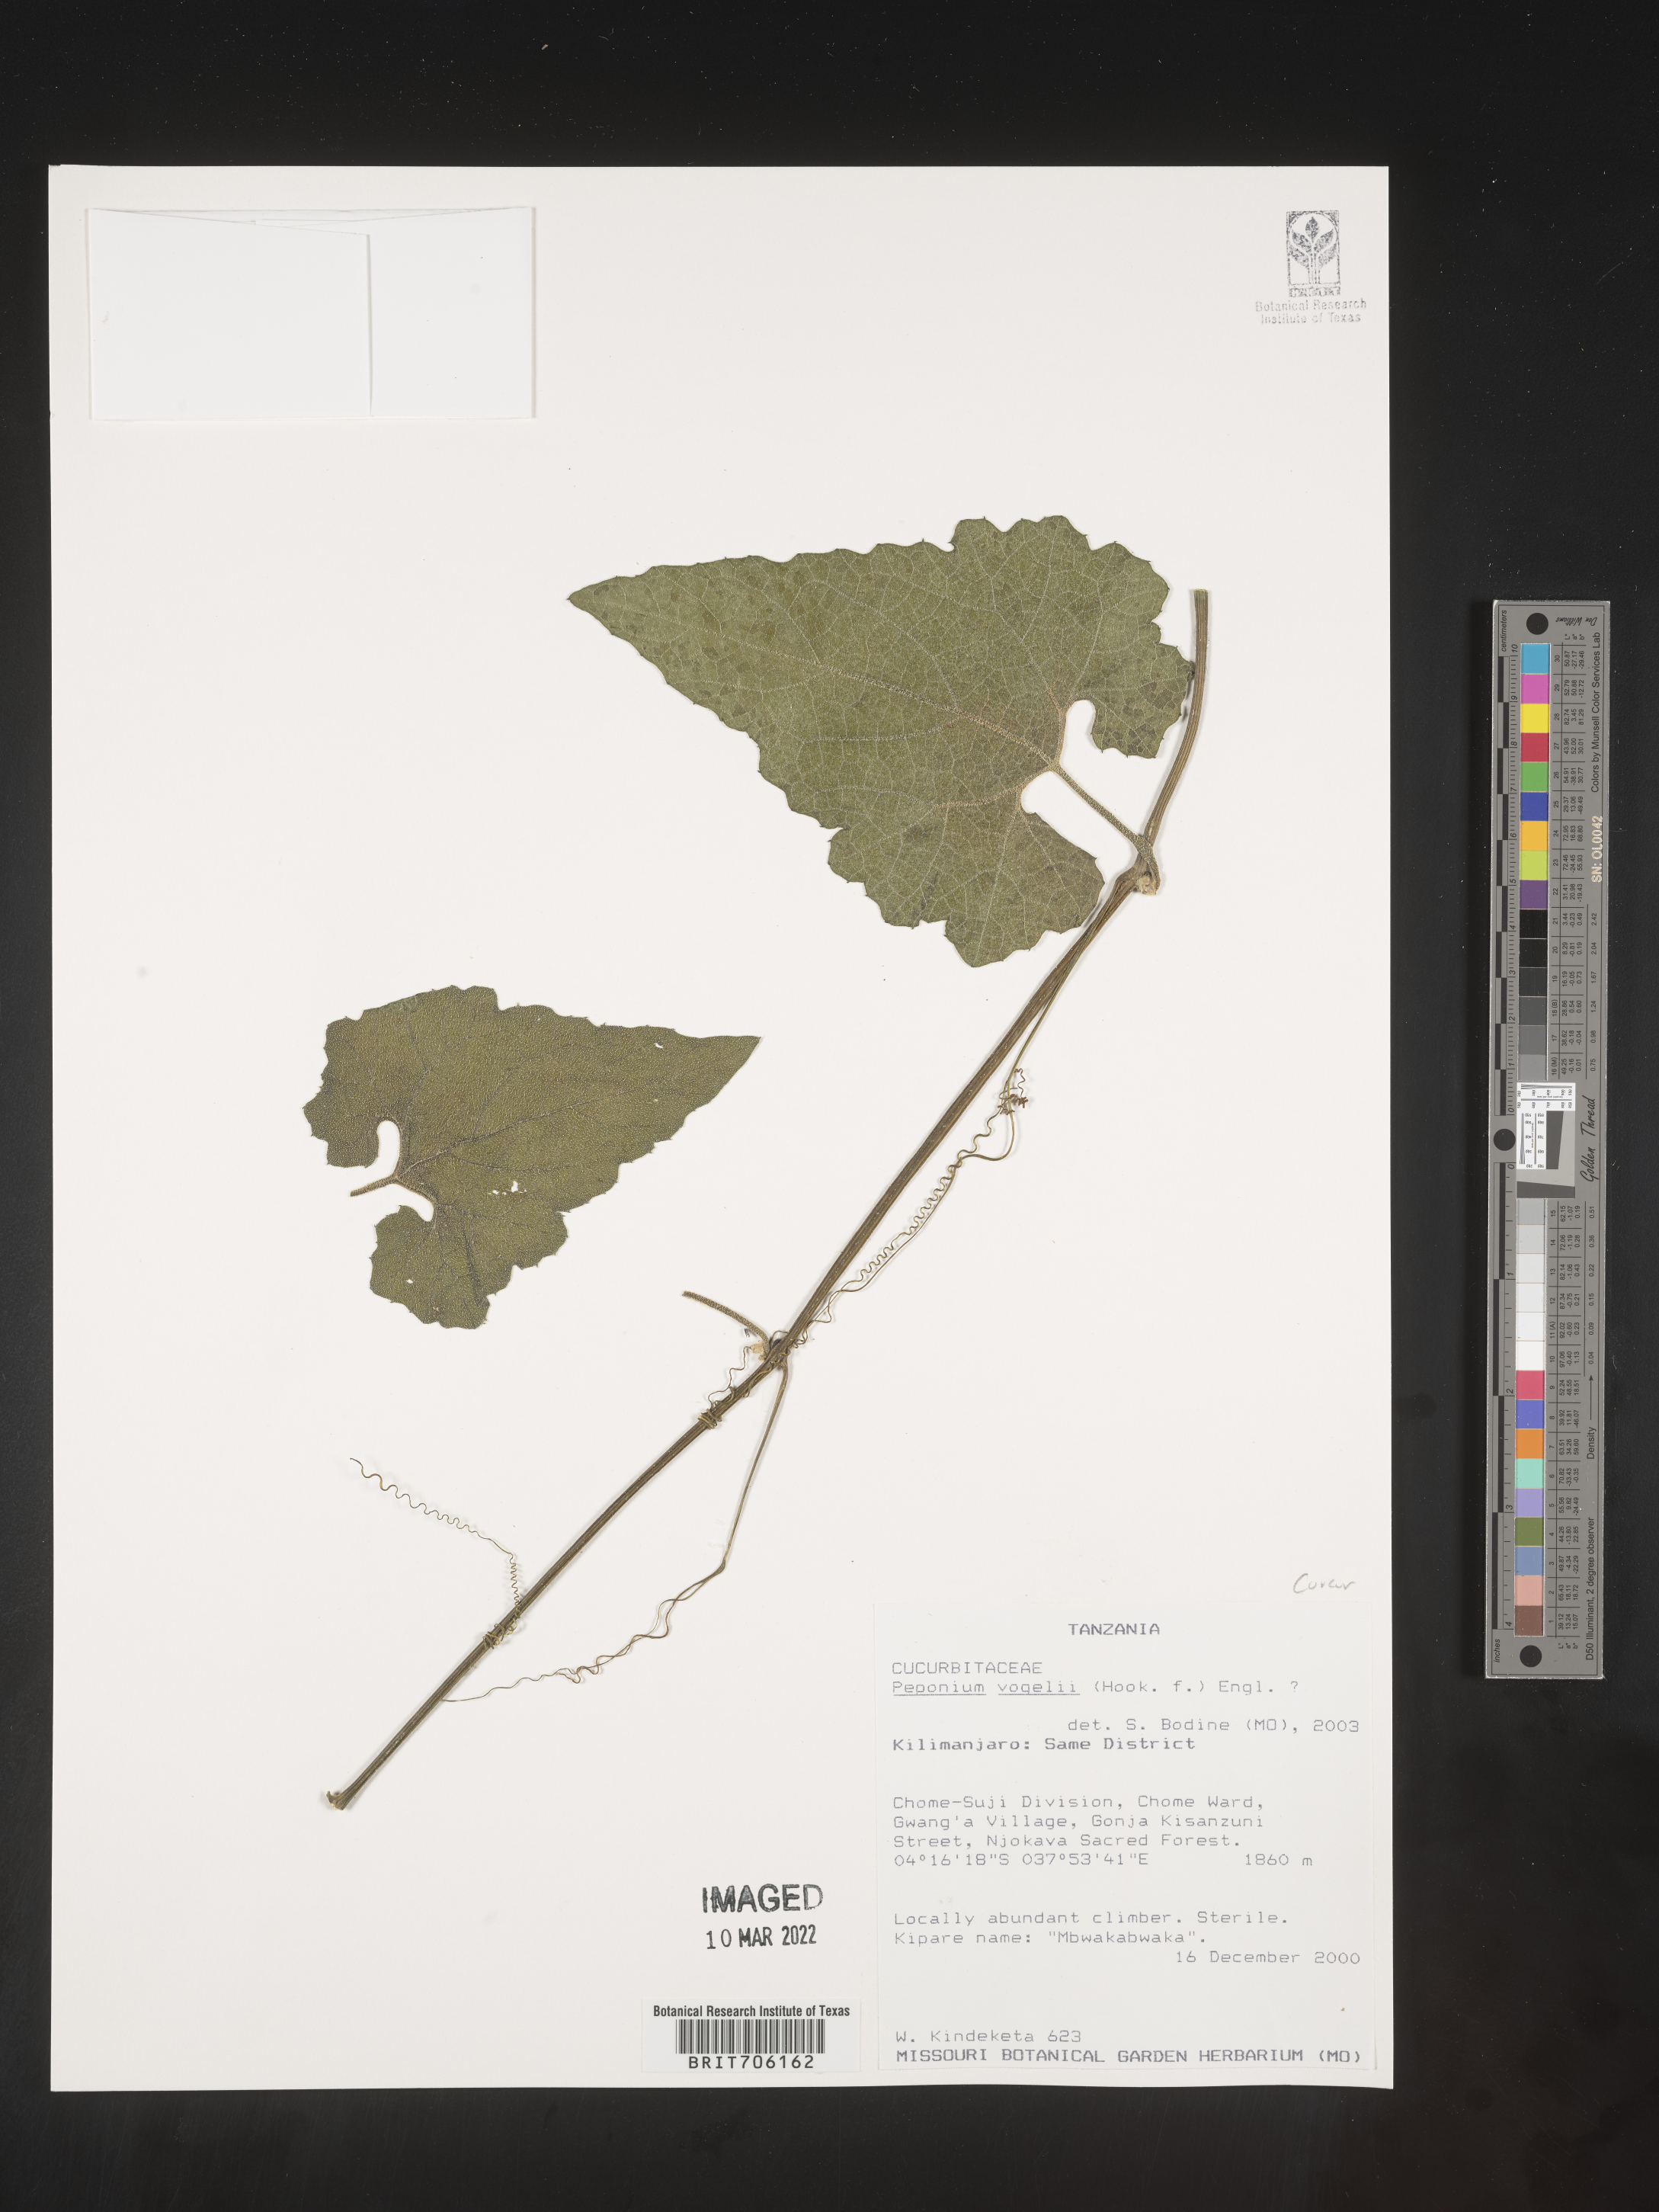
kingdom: Plantae
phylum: Tracheophyta
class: Magnoliopsida
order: Cucurbitales
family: Cucurbitaceae
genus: Peponium
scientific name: Peponium
